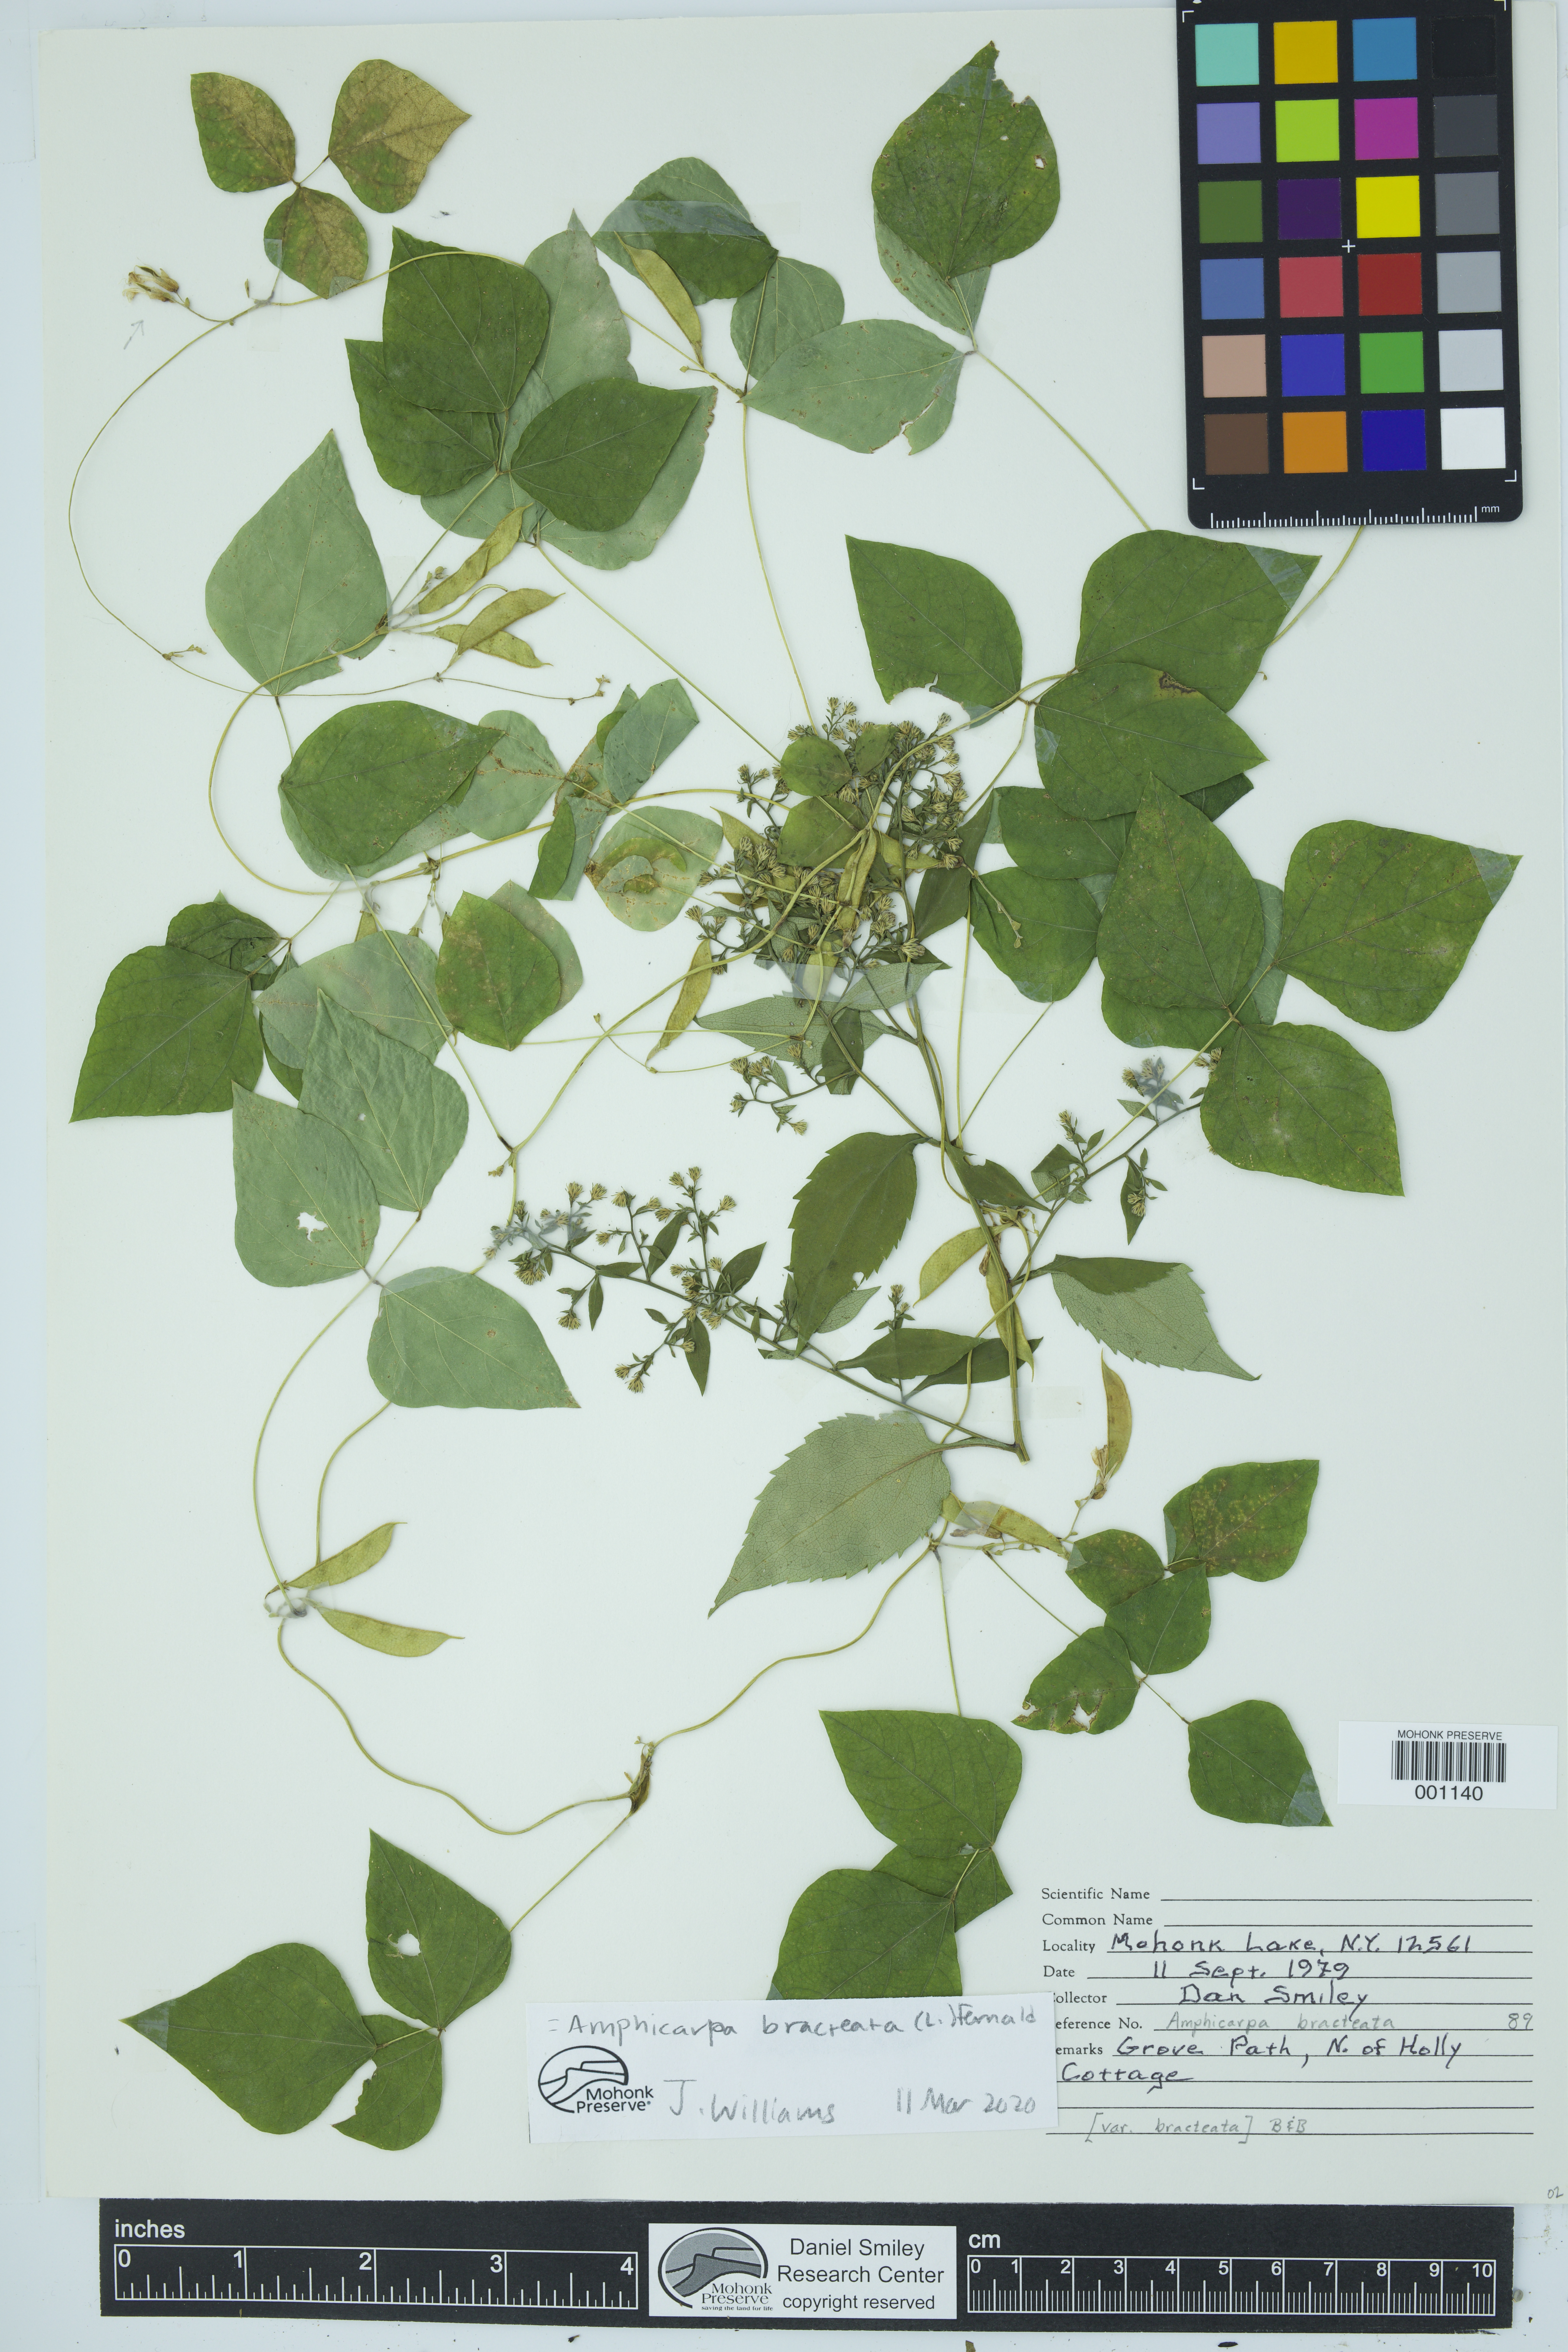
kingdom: Plantae
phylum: Tracheophyta
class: Magnoliopsida
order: Fabales
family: Fabaceae
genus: Amphicarpaea
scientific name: Amphicarpaea bracteata
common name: American hog peanut
